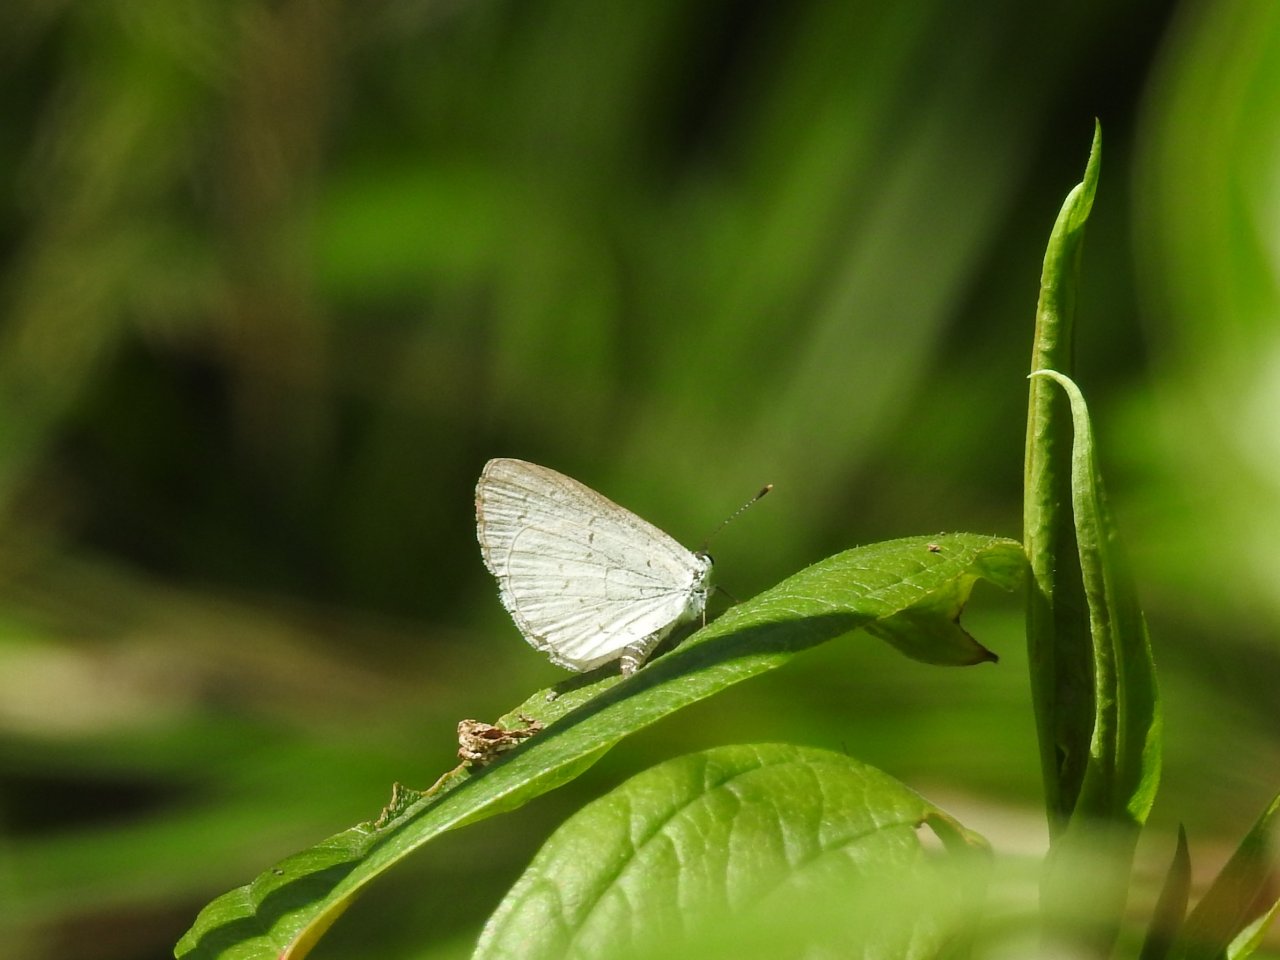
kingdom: Animalia
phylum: Arthropoda
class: Insecta
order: Lepidoptera
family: Lycaenidae
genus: Celastrina
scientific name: Celastrina
